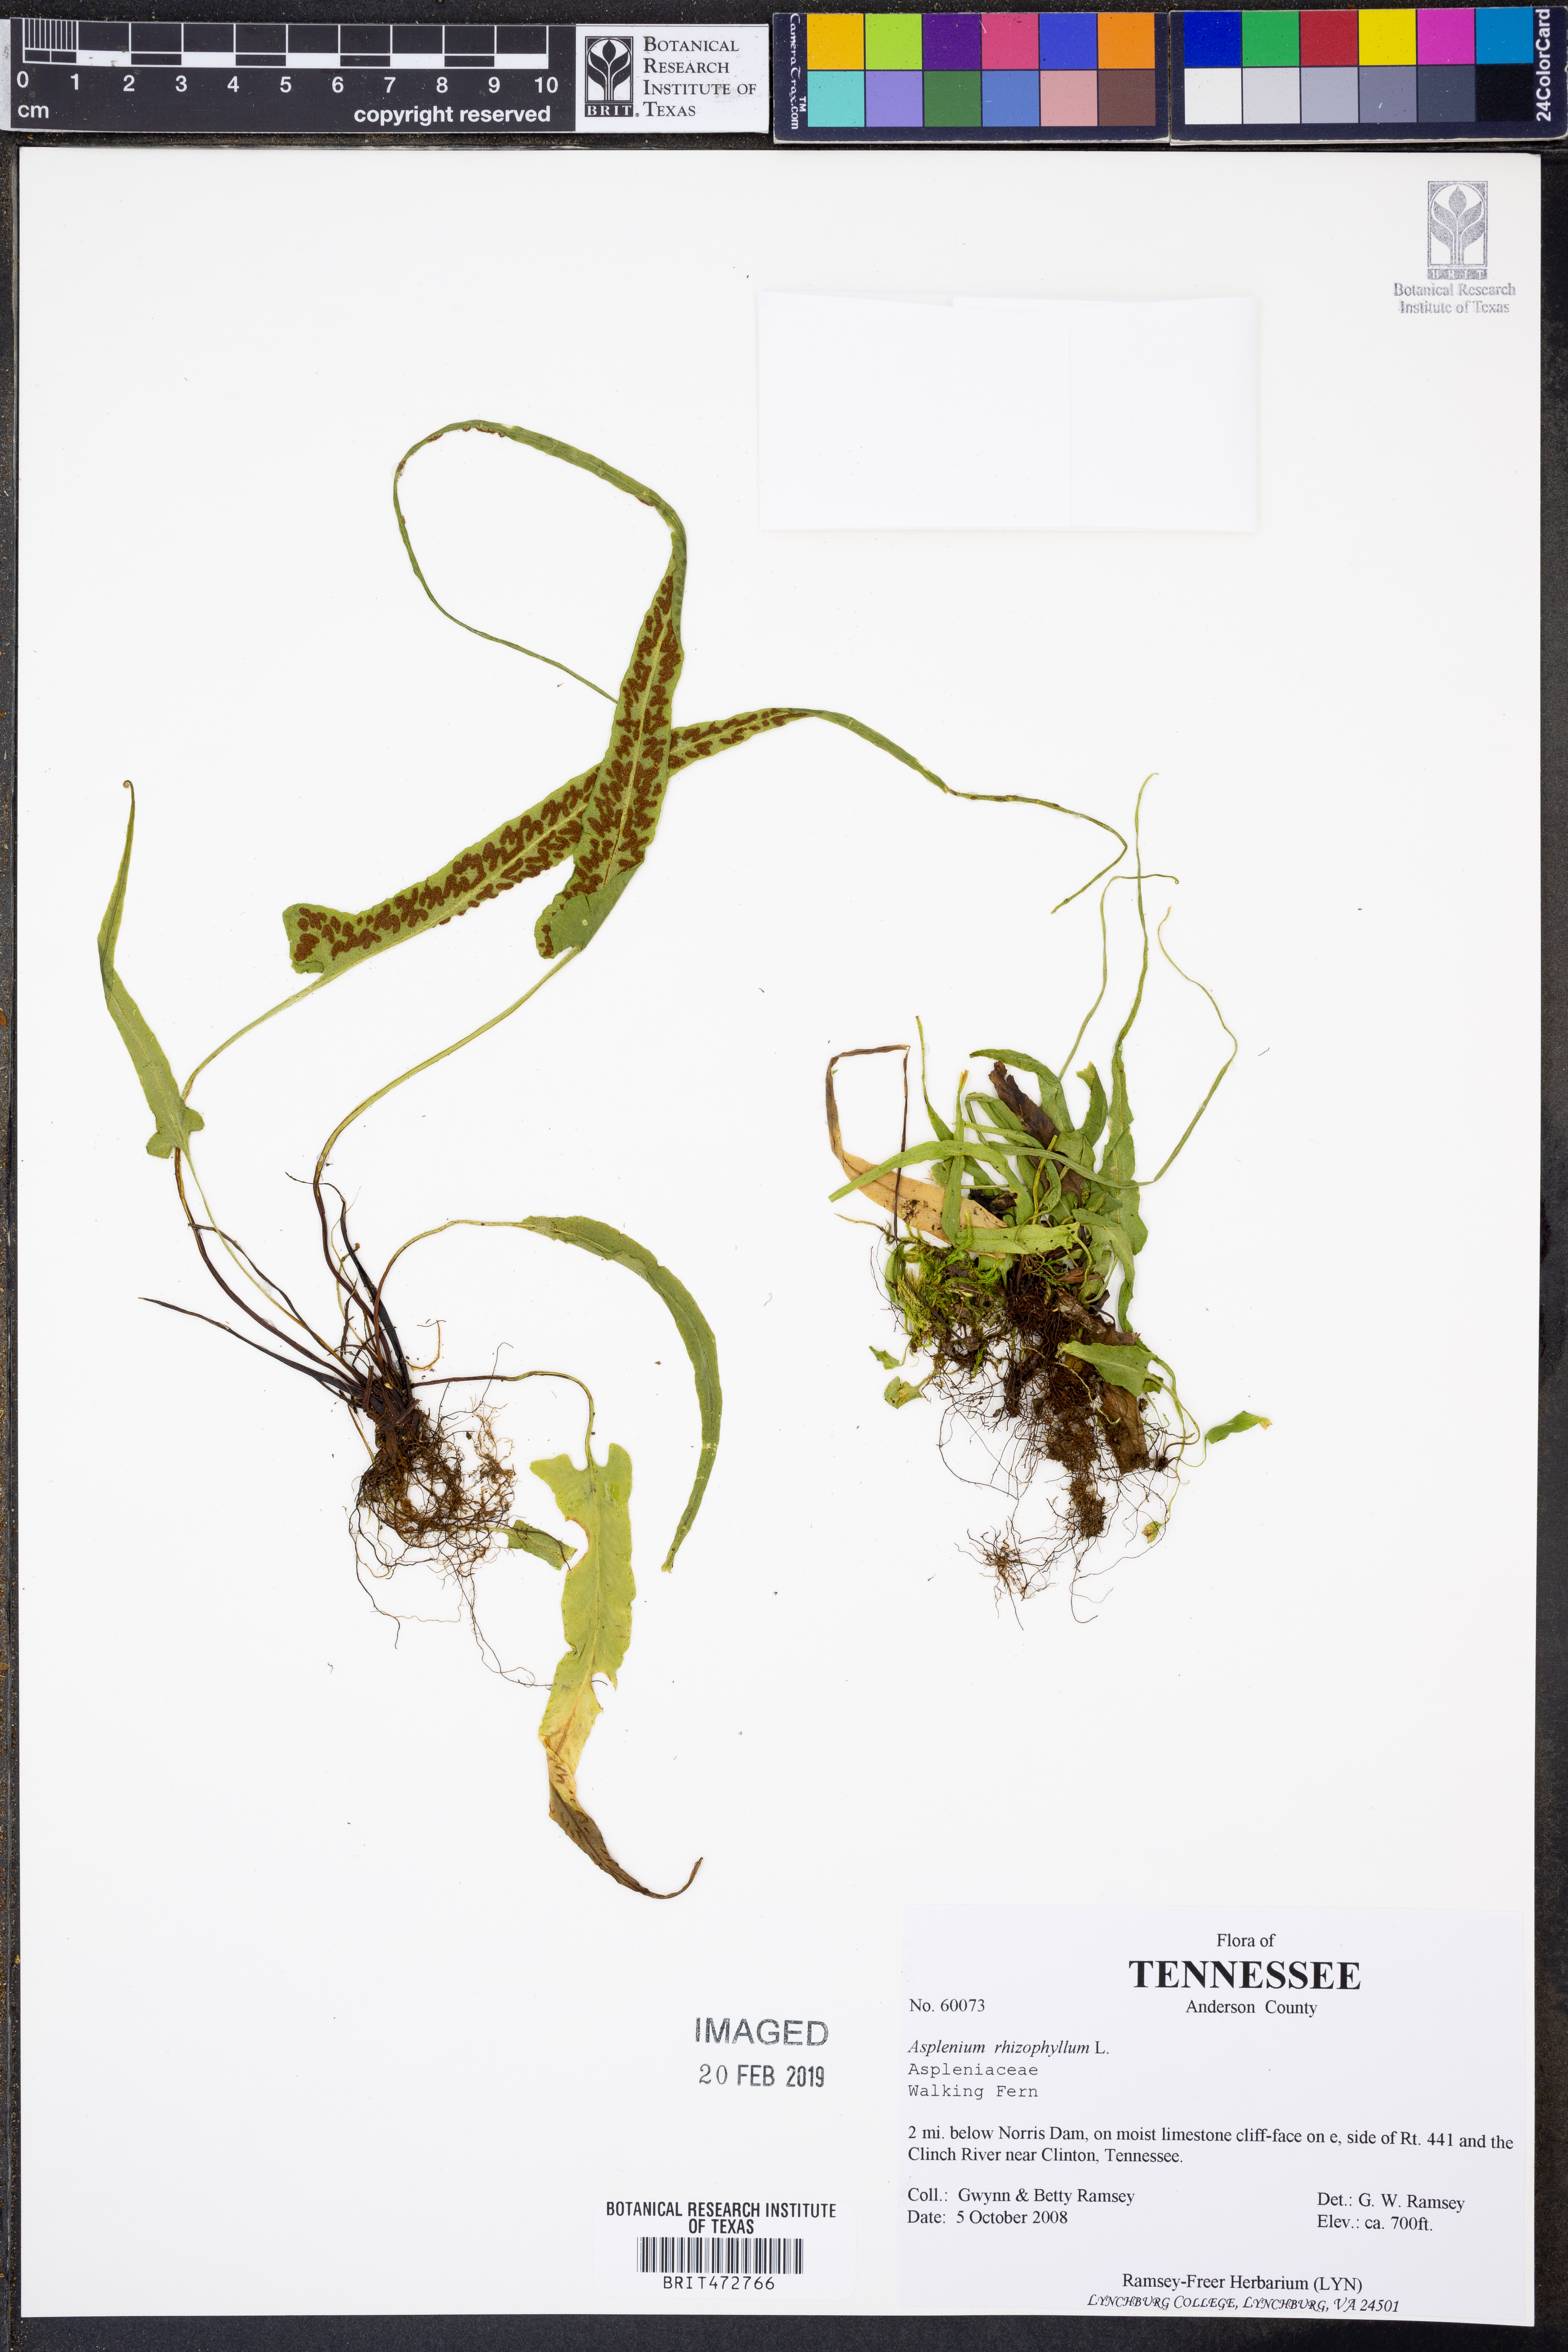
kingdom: Plantae
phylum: Tracheophyta
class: Polypodiopsida
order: Polypodiales
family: Aspleniaceae
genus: Asplenium
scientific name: Asplenium rhizophyllum
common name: Walking fern
